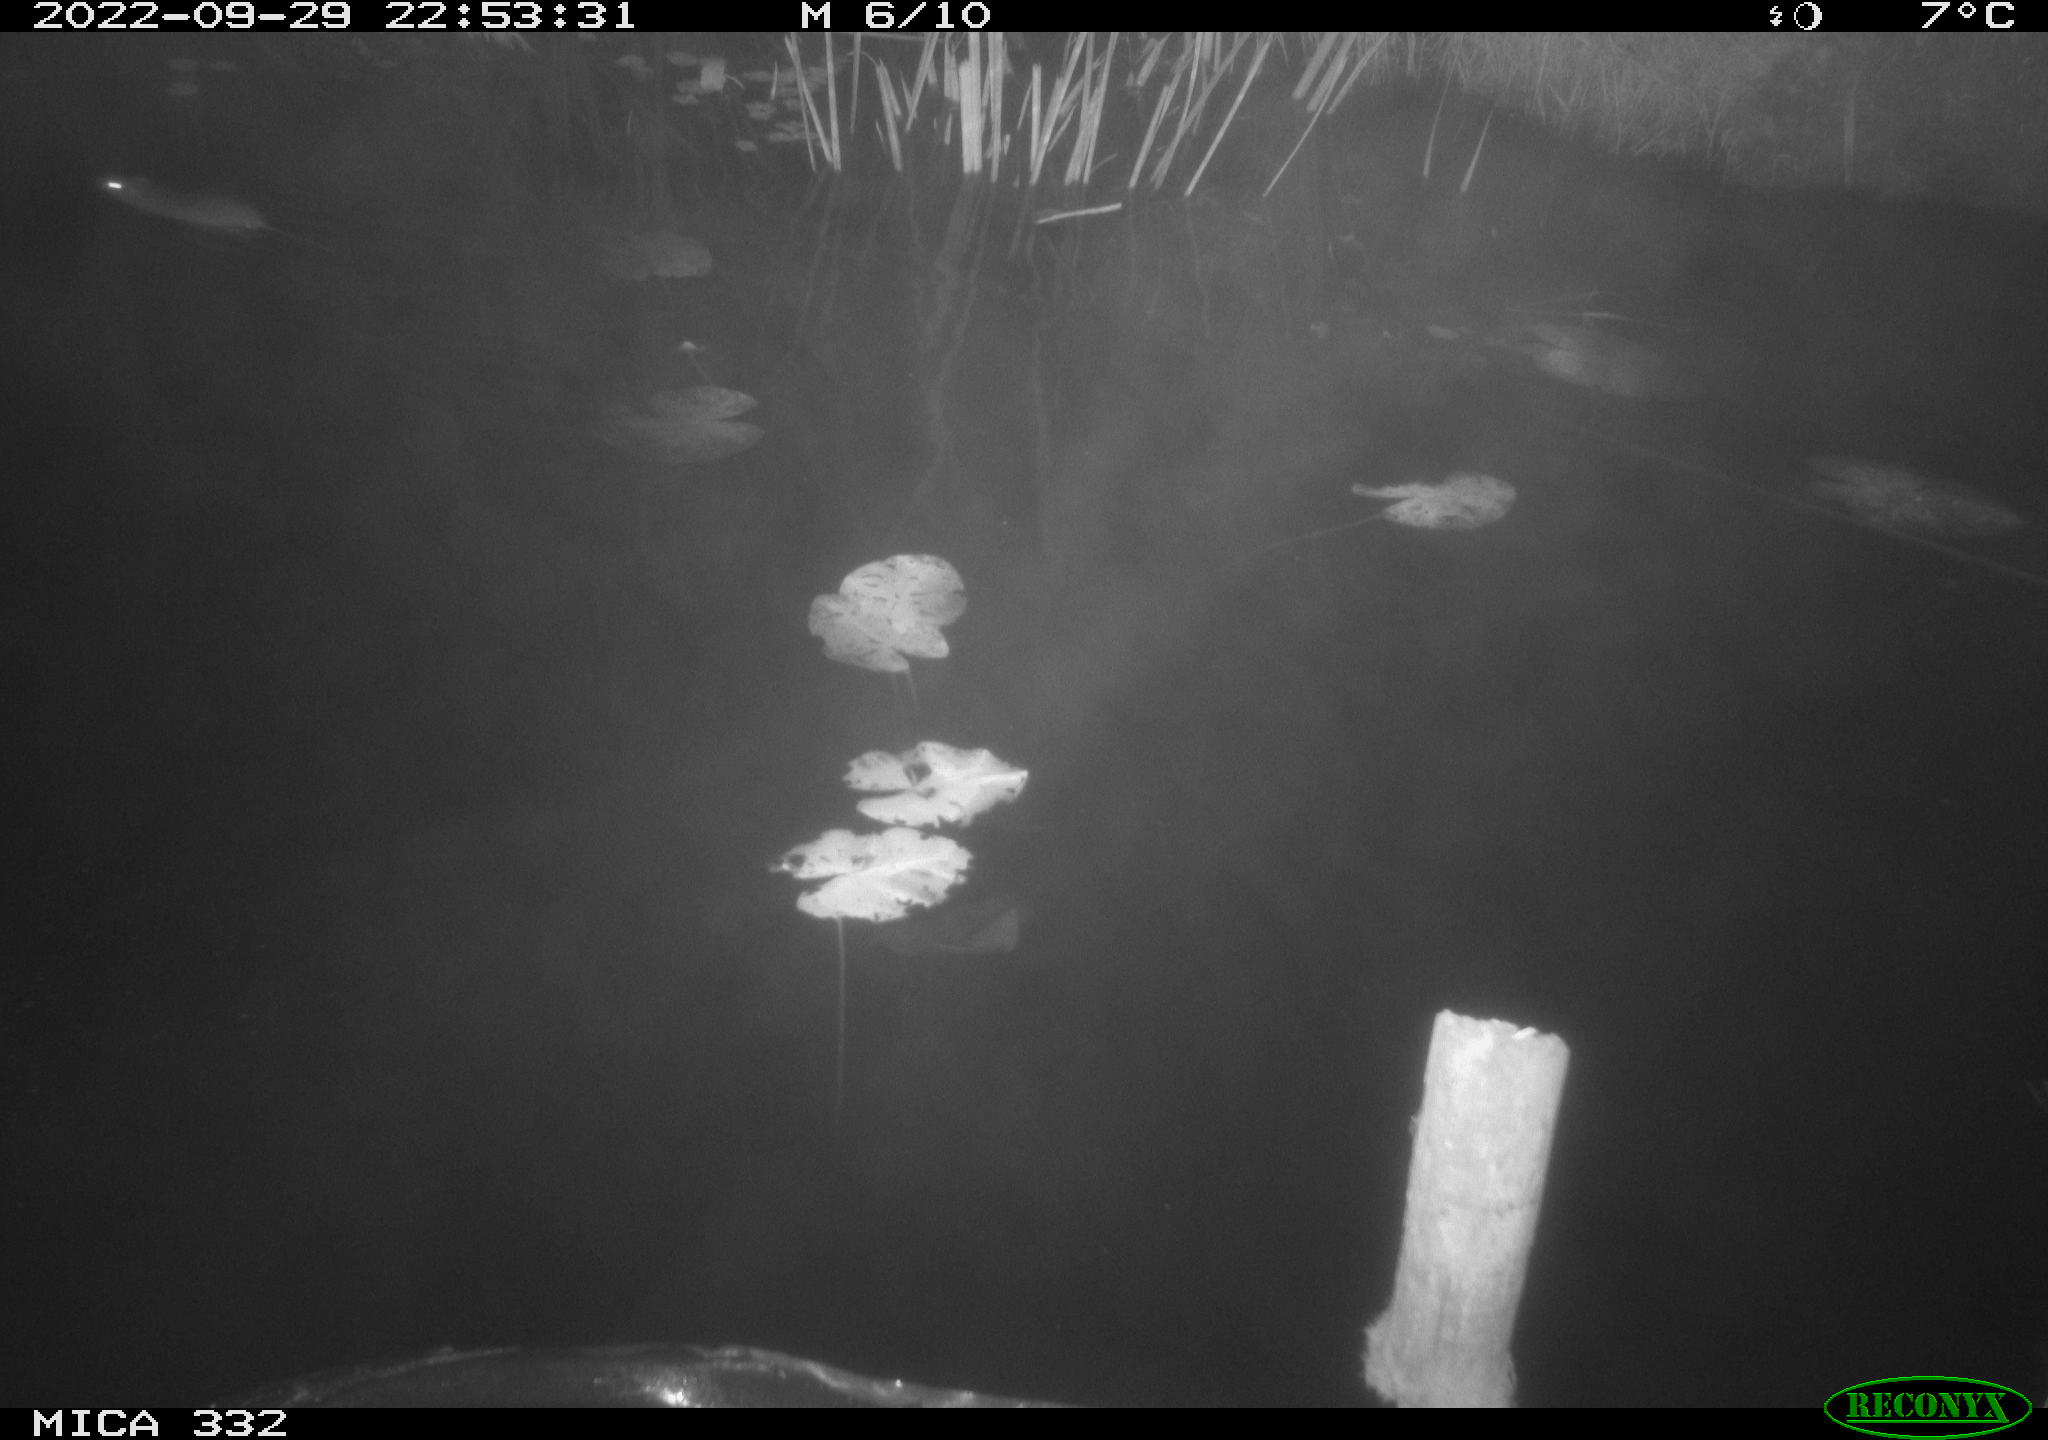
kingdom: Animalia
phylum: Chordata
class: Mammalia
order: Rodentia
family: Muridae
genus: Rattus
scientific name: Rattus norvegicus
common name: Brown rat
